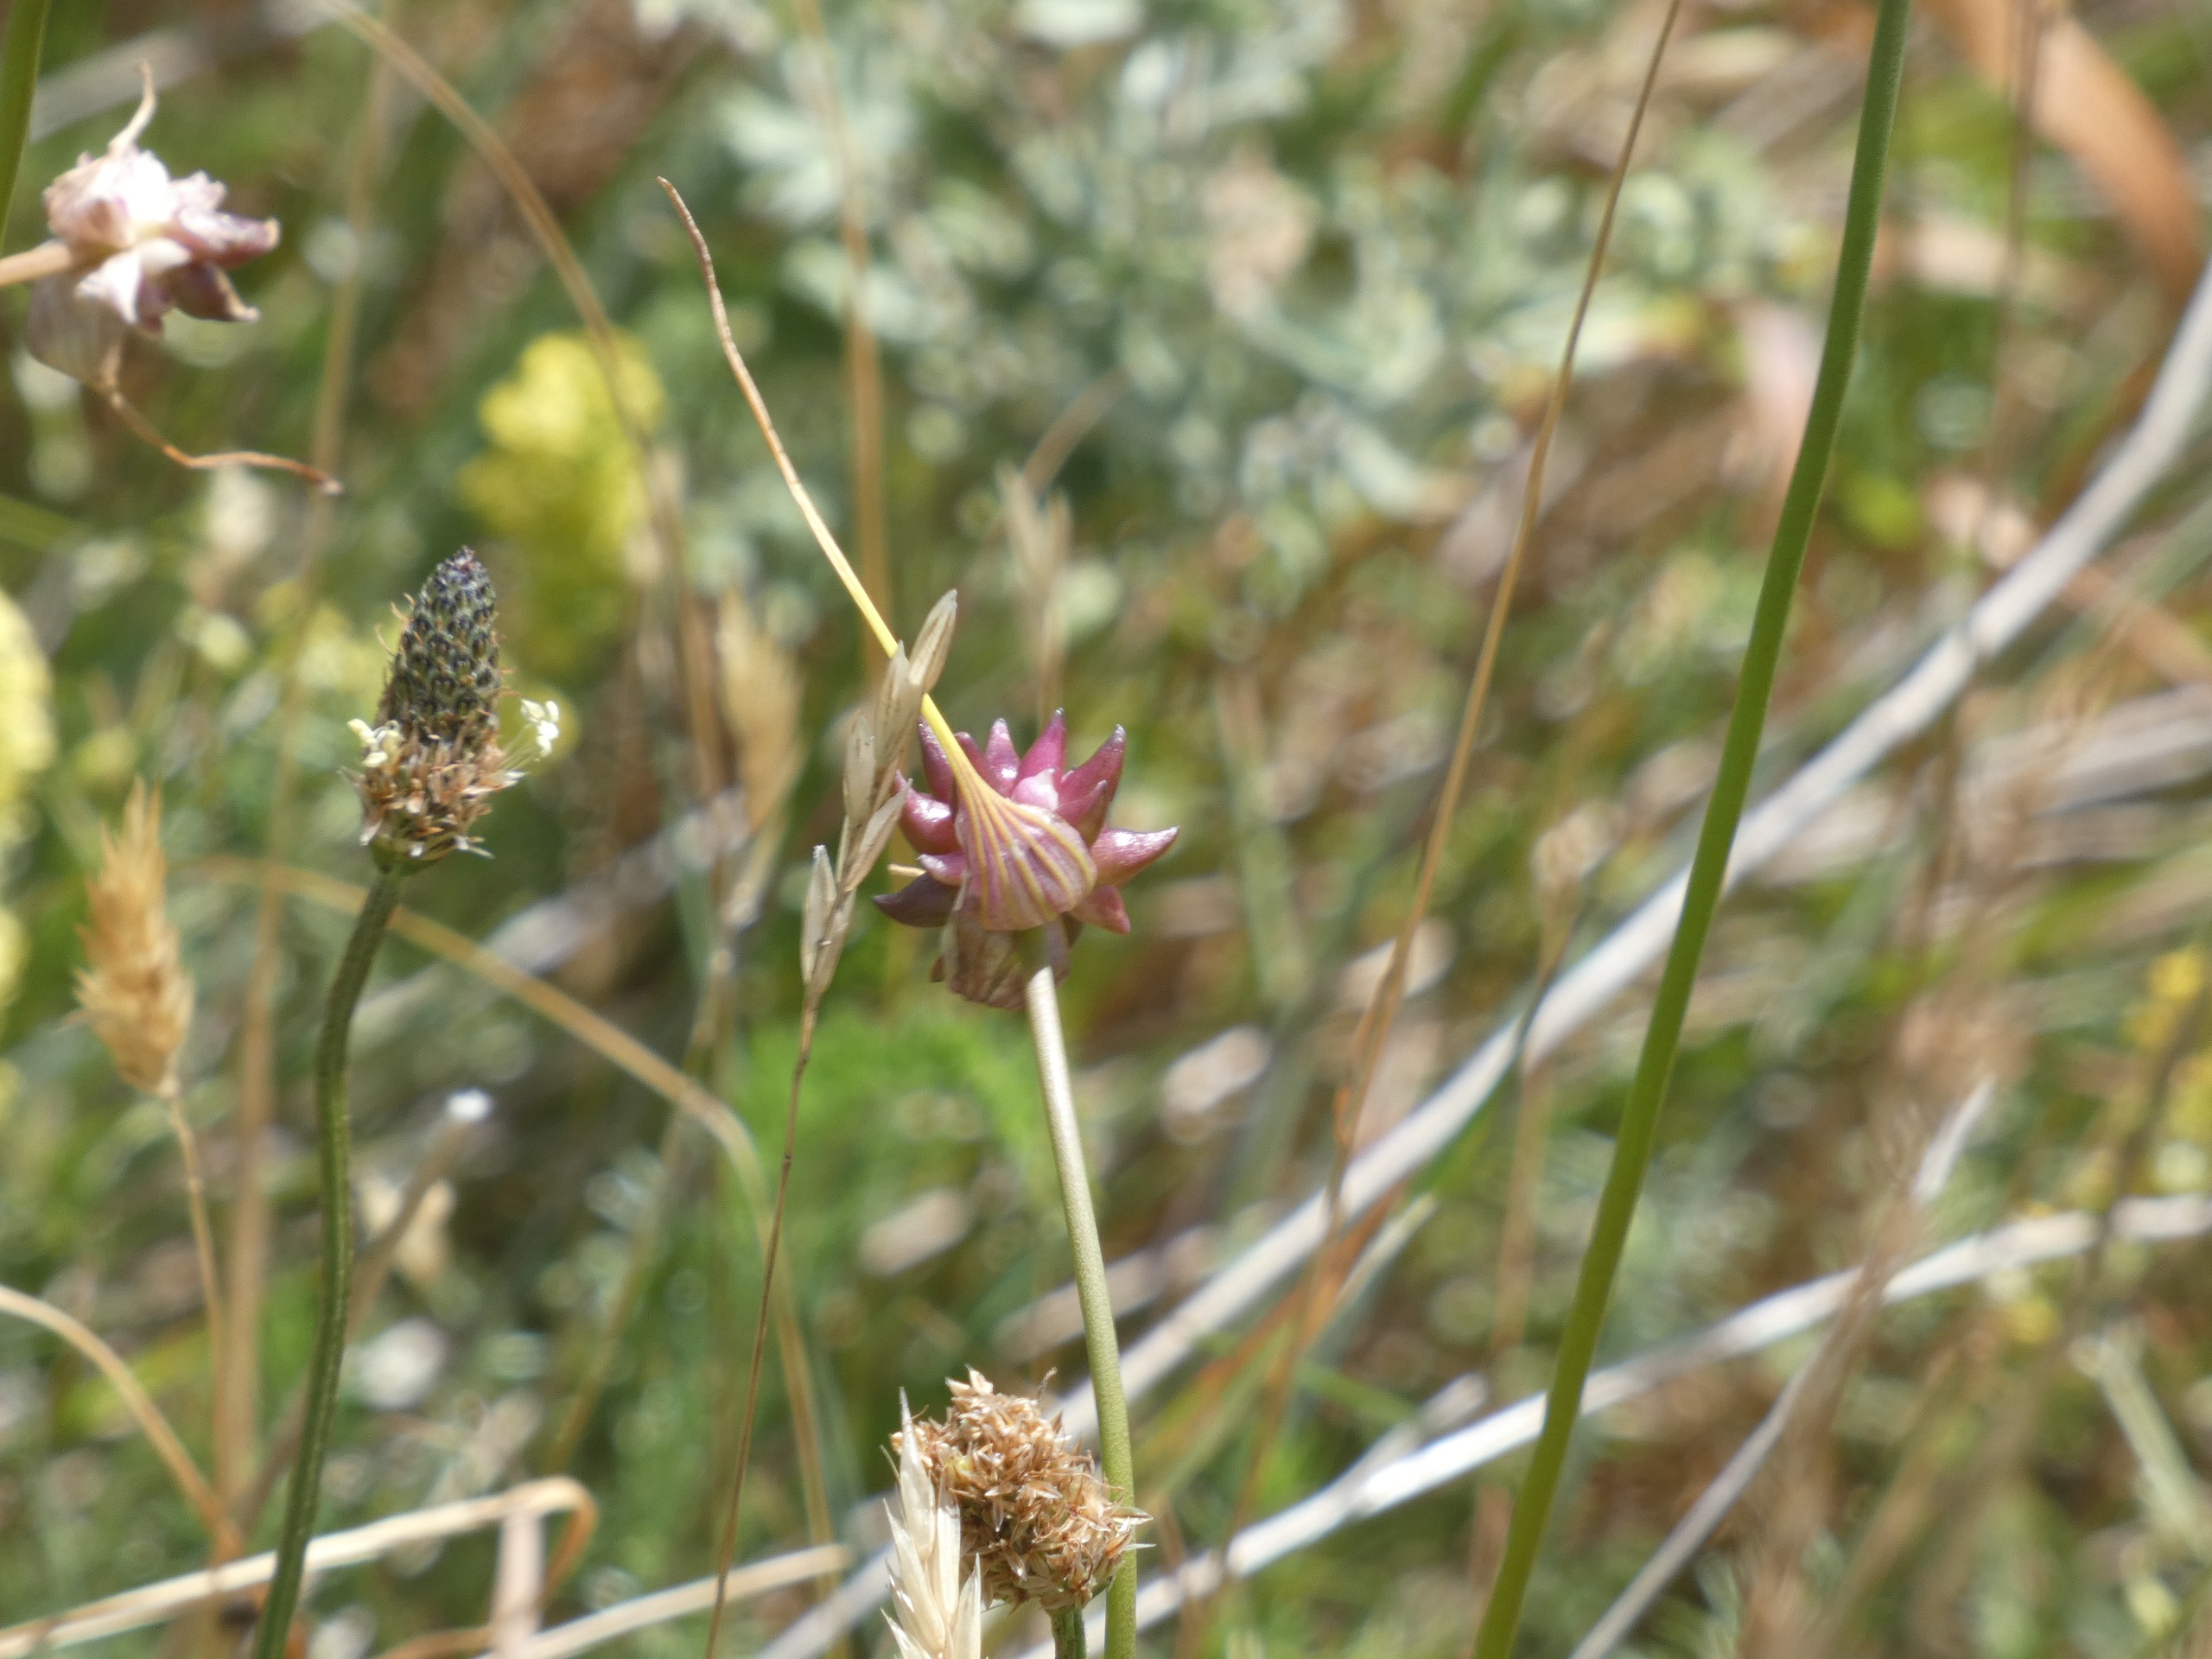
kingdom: Plantae
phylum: Tracheophyta
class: Liliopsida
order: Asparagales
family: Amaryllidaceae
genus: Allium
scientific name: Allium oleraceum
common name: Vild løg
